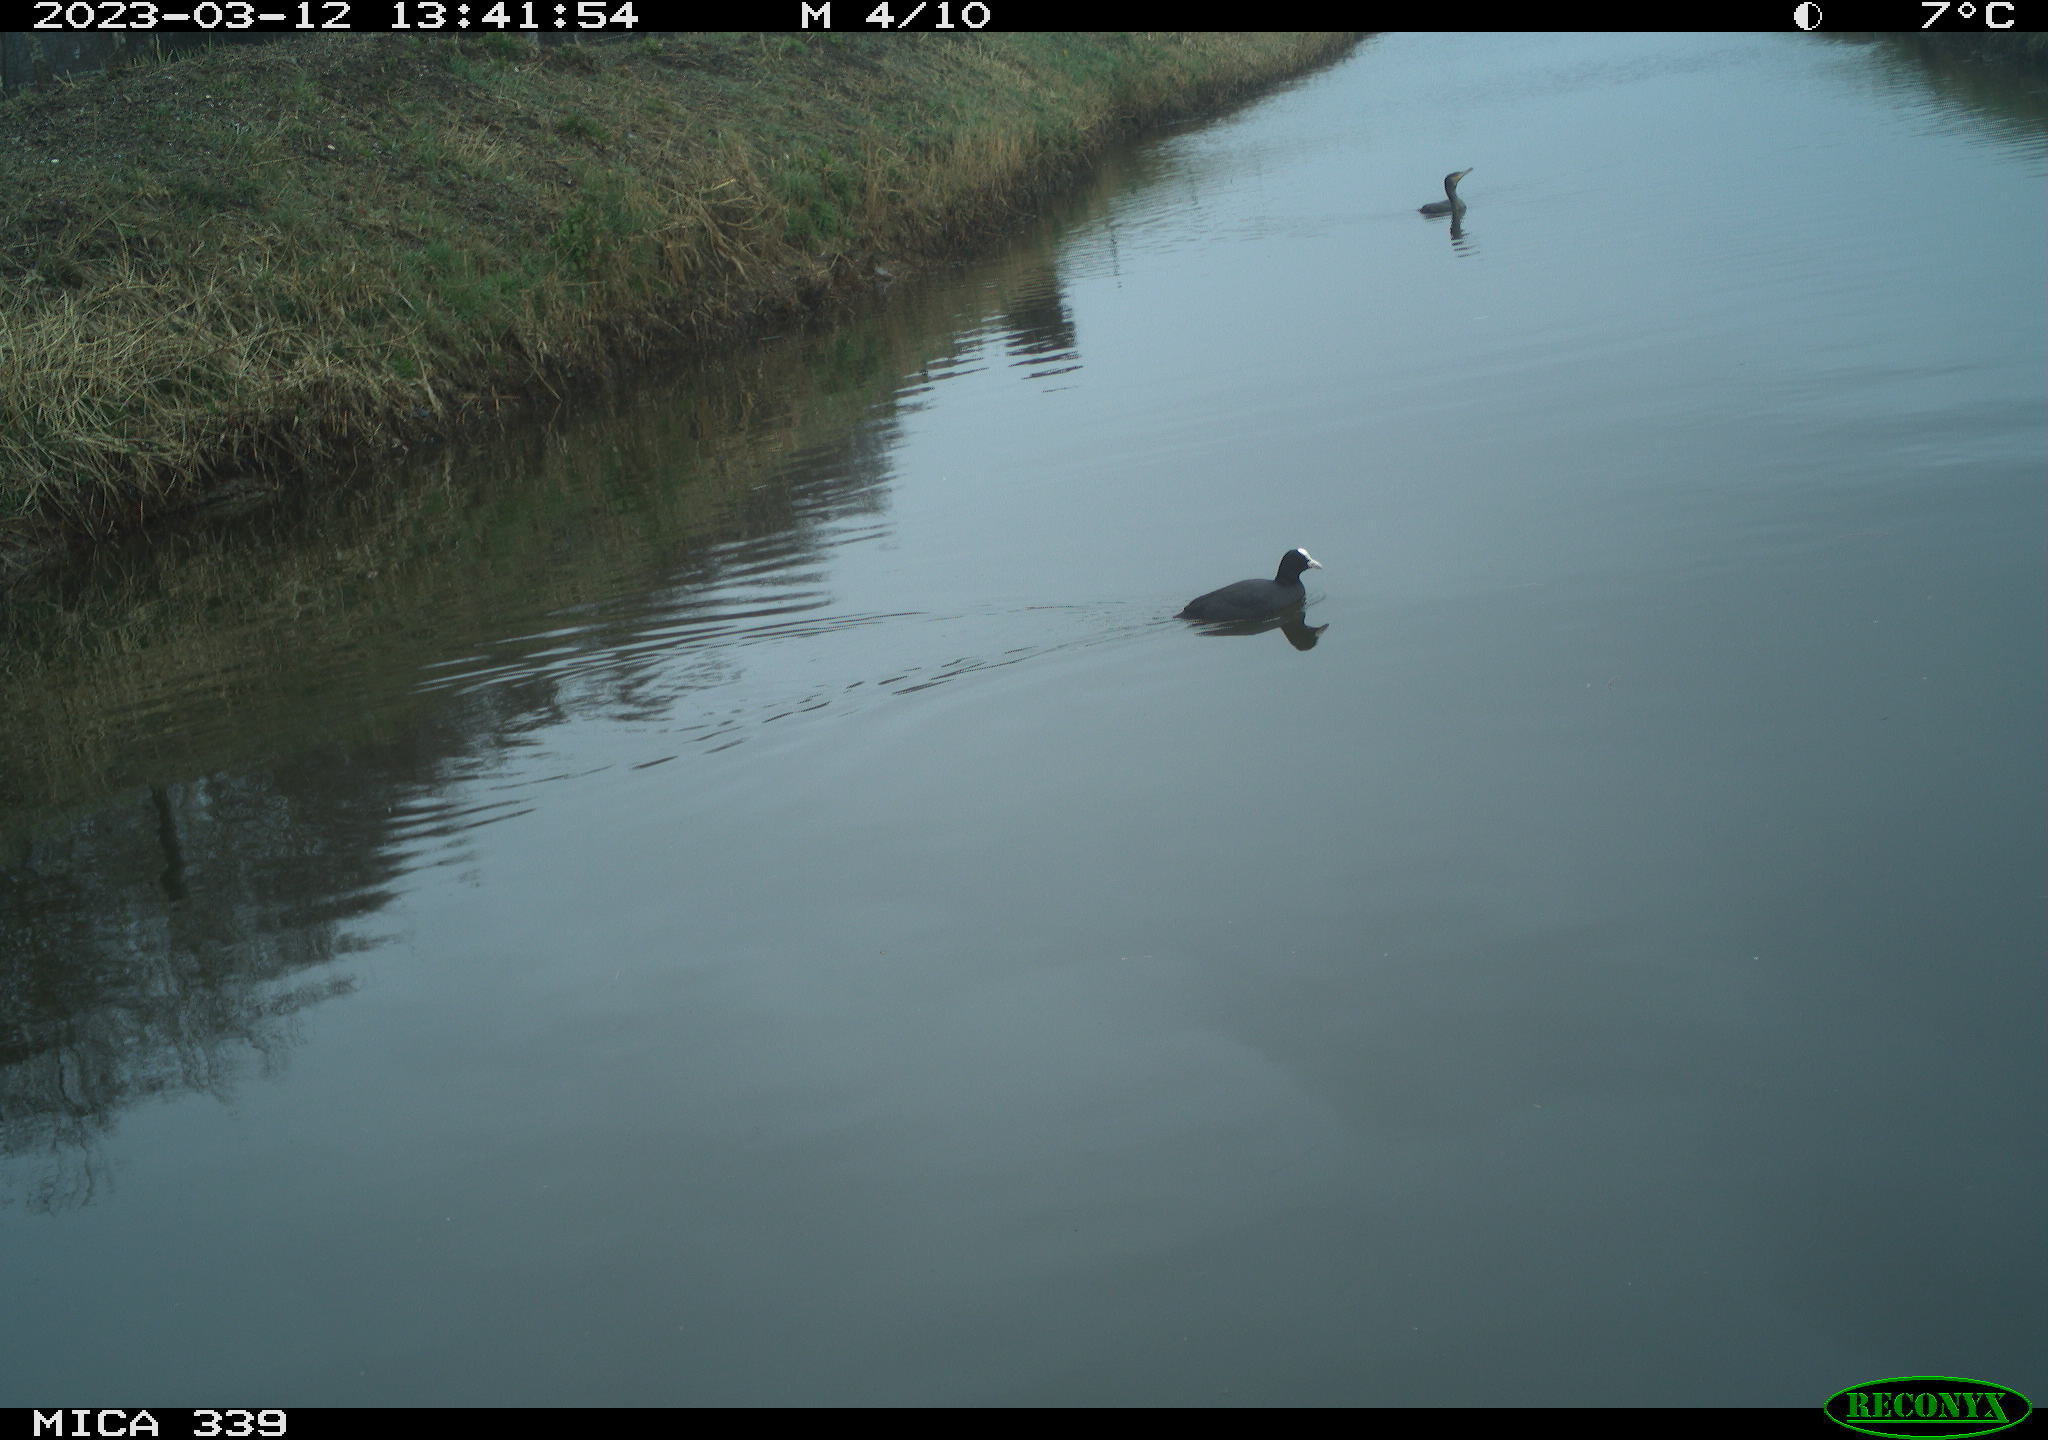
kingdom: Animalia
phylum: Chordata
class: Aves
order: Suliformes
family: Phalacrocoracidae
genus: Phalacrocorax
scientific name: Phalacrocorax carbo
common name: Great cormorant
